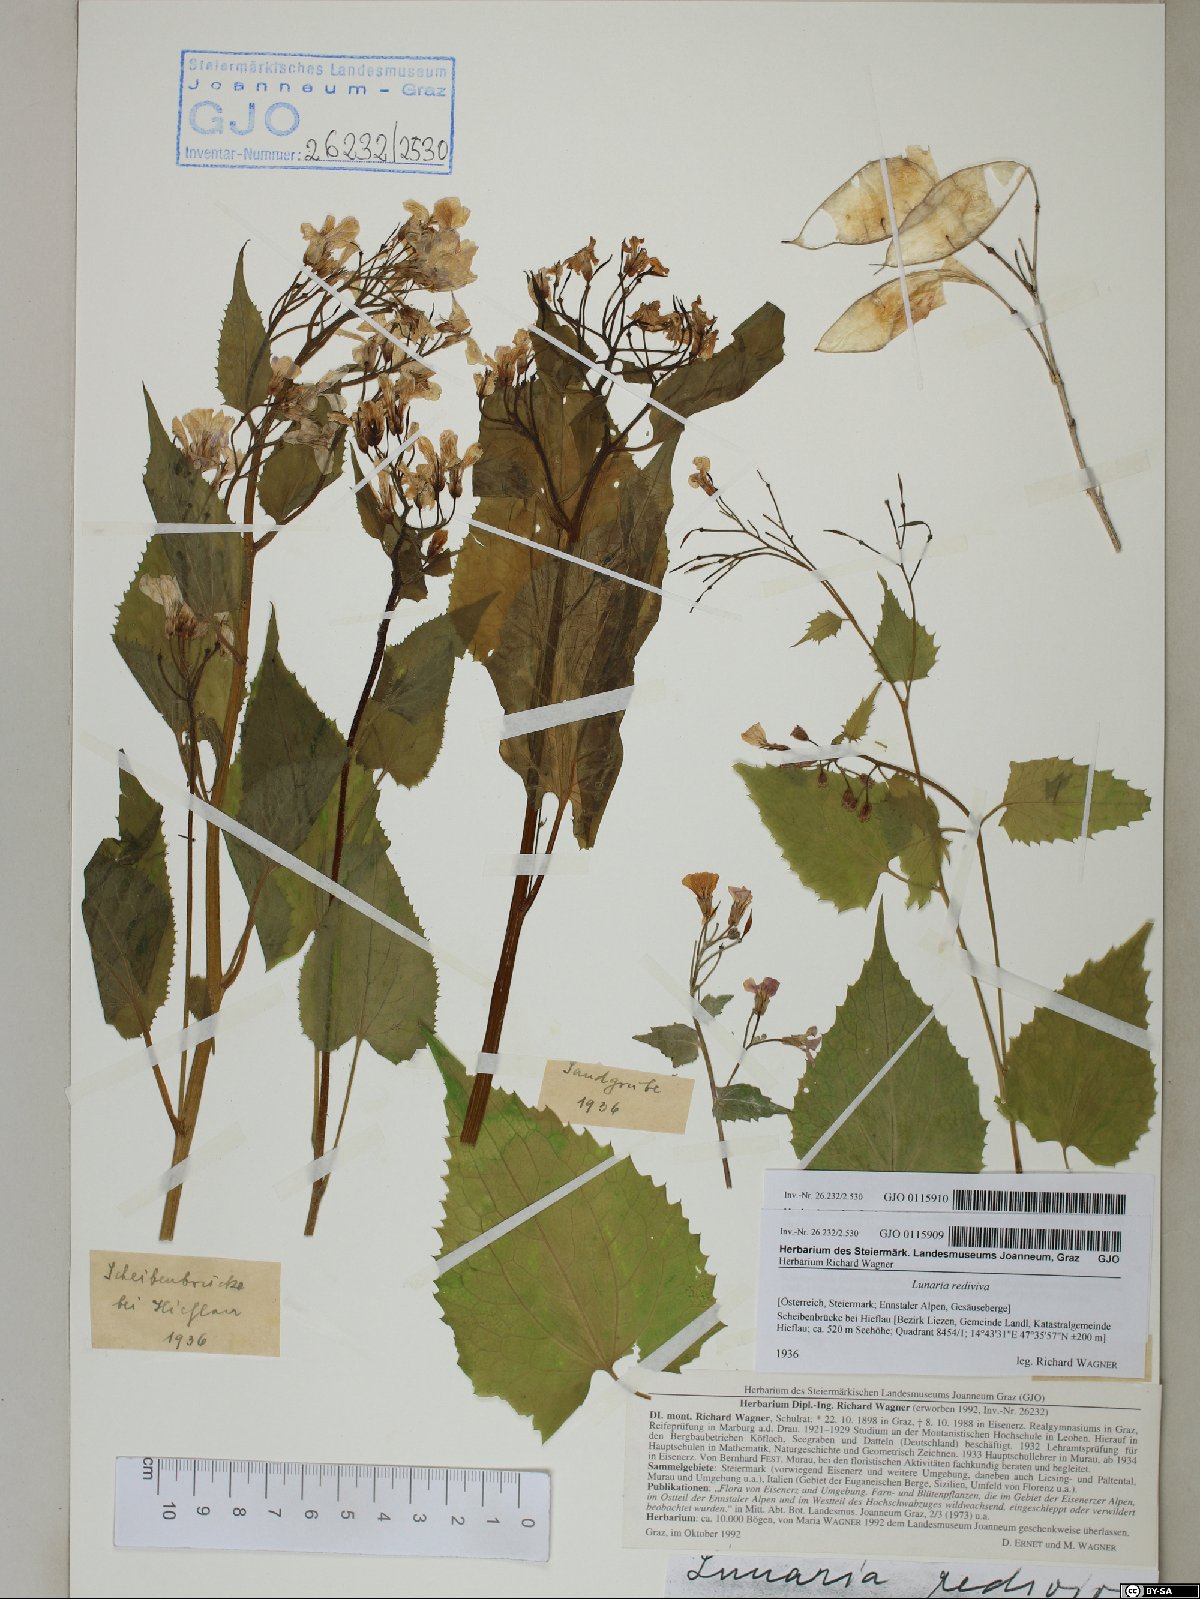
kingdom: Plantae
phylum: Tracheophyta
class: Magnoliopsida
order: Brassicales
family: Brassicaceae
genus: Lunaria
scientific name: Lunaria rediviva
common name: Perennial honesty
